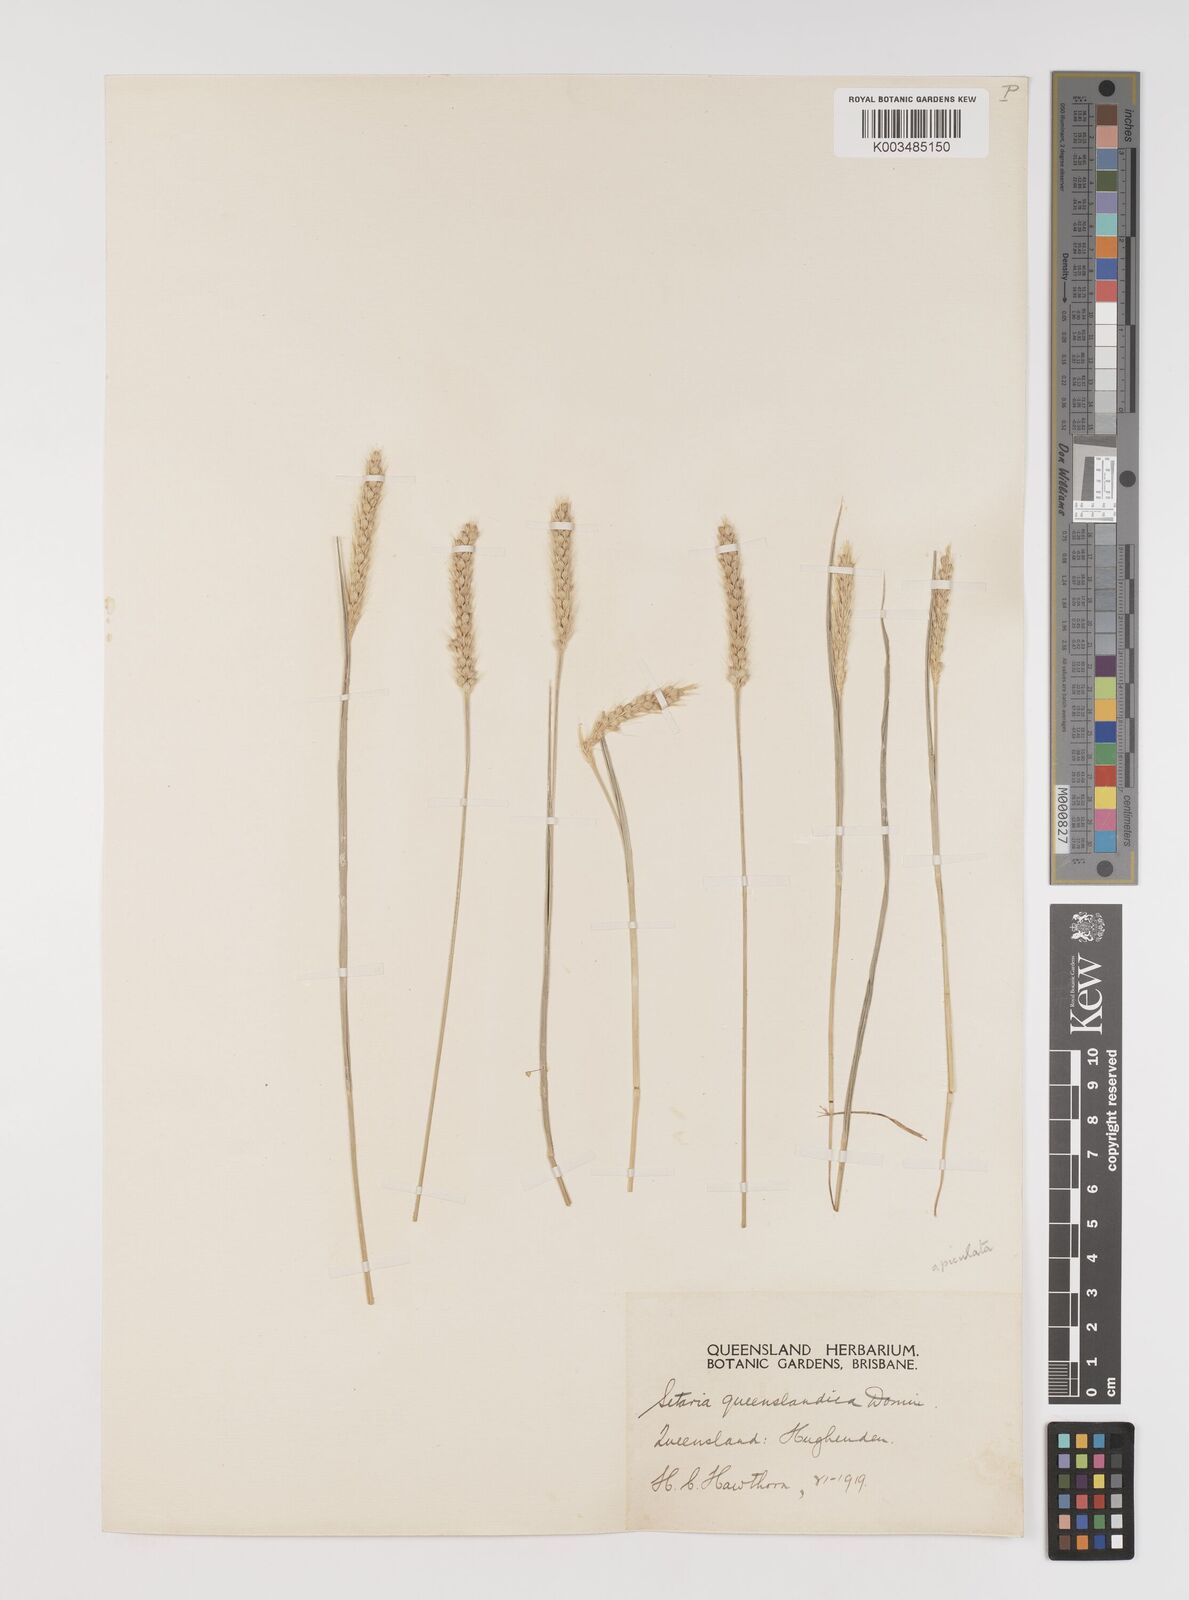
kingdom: Plantae
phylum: Tracheophyta
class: Liliopsida
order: Poales
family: Poaceae
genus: Setaria
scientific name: Setaria apiculata
